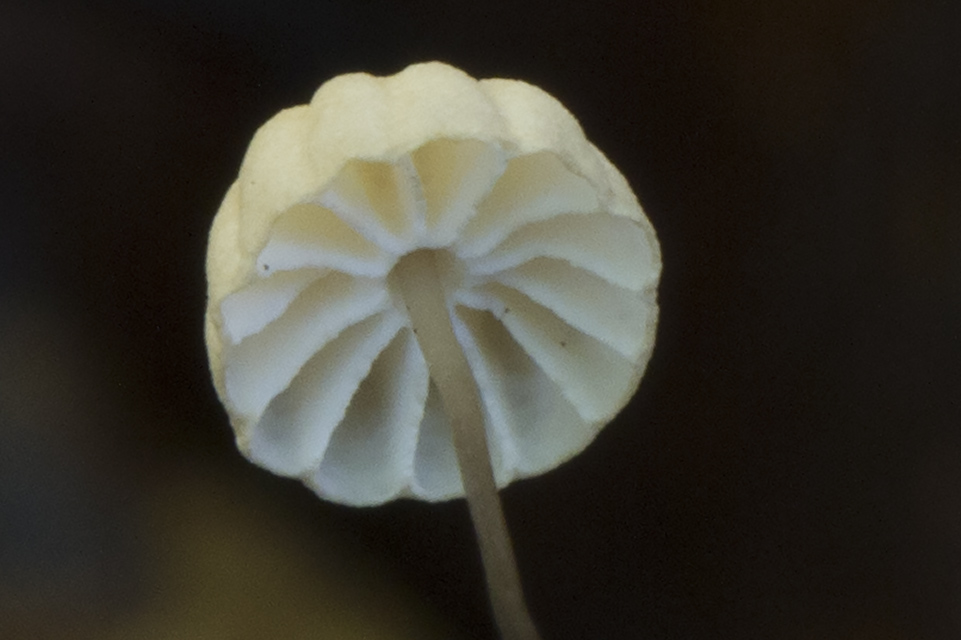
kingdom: Fungi
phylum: Basidiomycota
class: Agaricomycetes
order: Agaricales
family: Marasmiaceae
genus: Marasmius
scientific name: Marasmius bulliardii
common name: furet bruskhat
